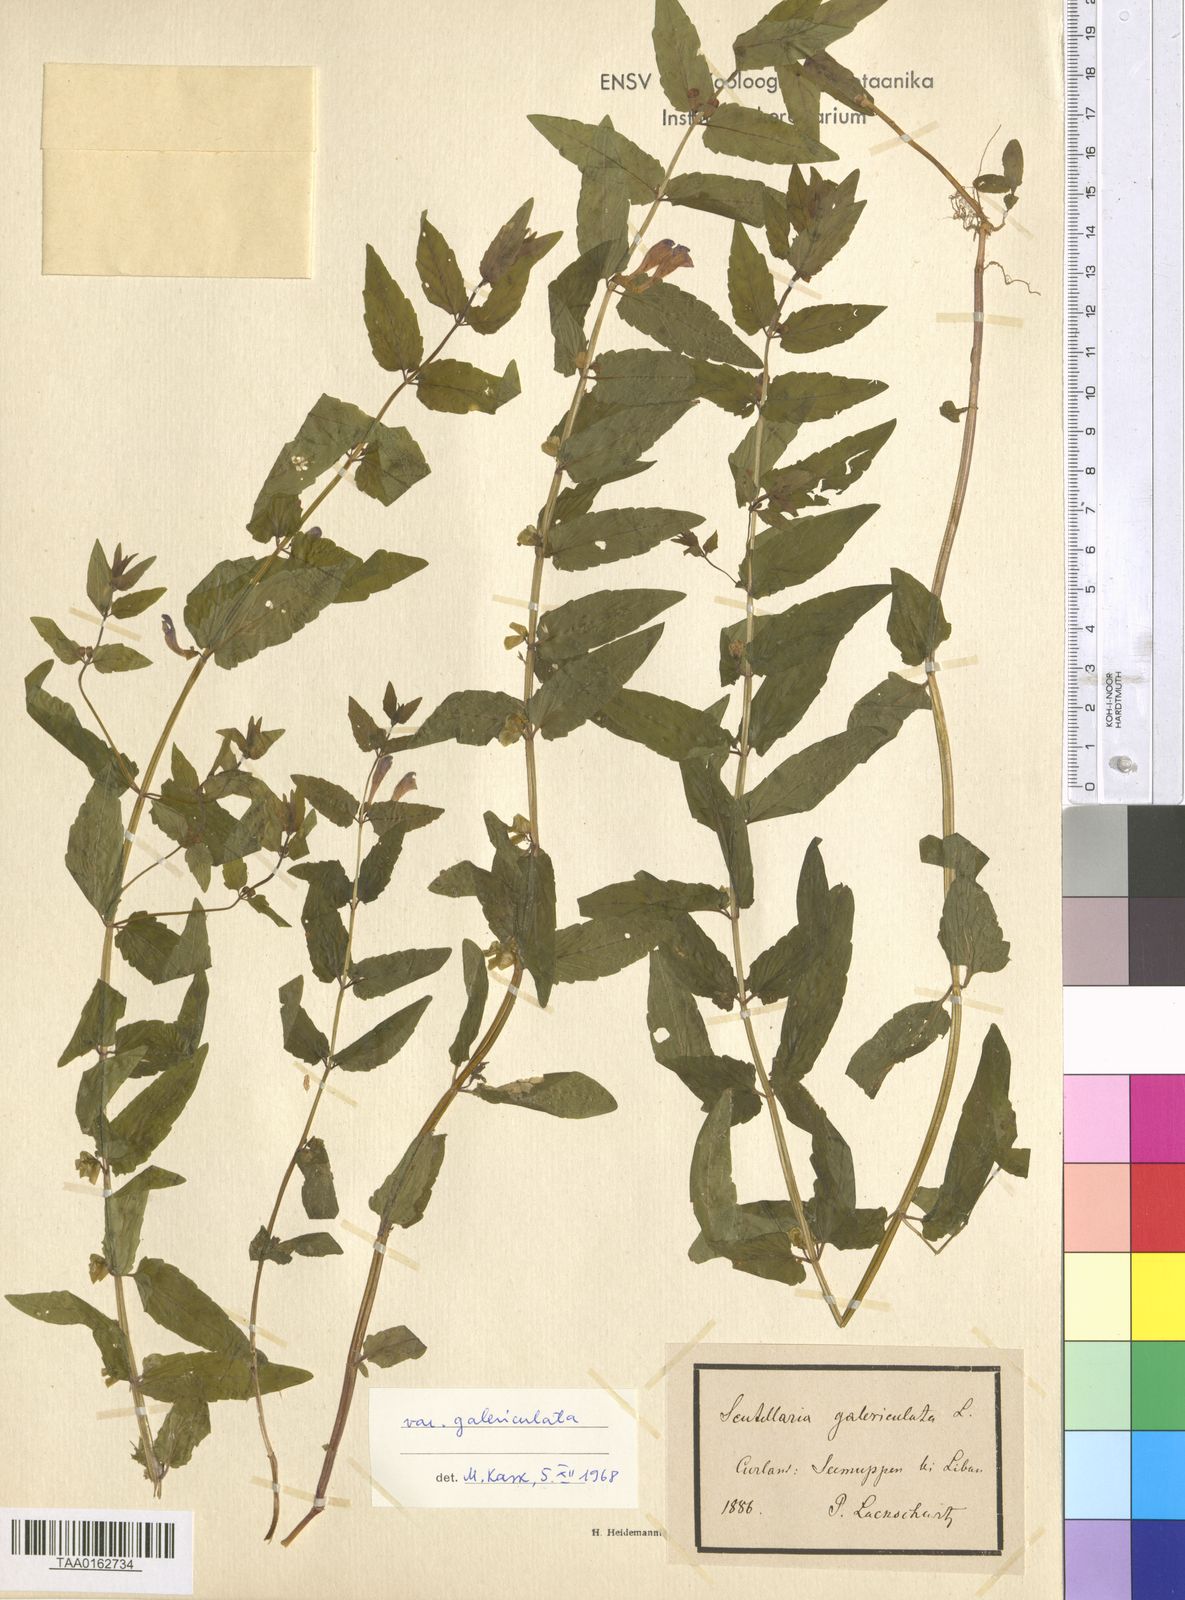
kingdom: Plantae
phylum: Tracheophyta
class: Magnoliopsida
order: Lamiales
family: Lamiaceae
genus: Scutellaria
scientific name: Scutellaria galericulata
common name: Skullcap
